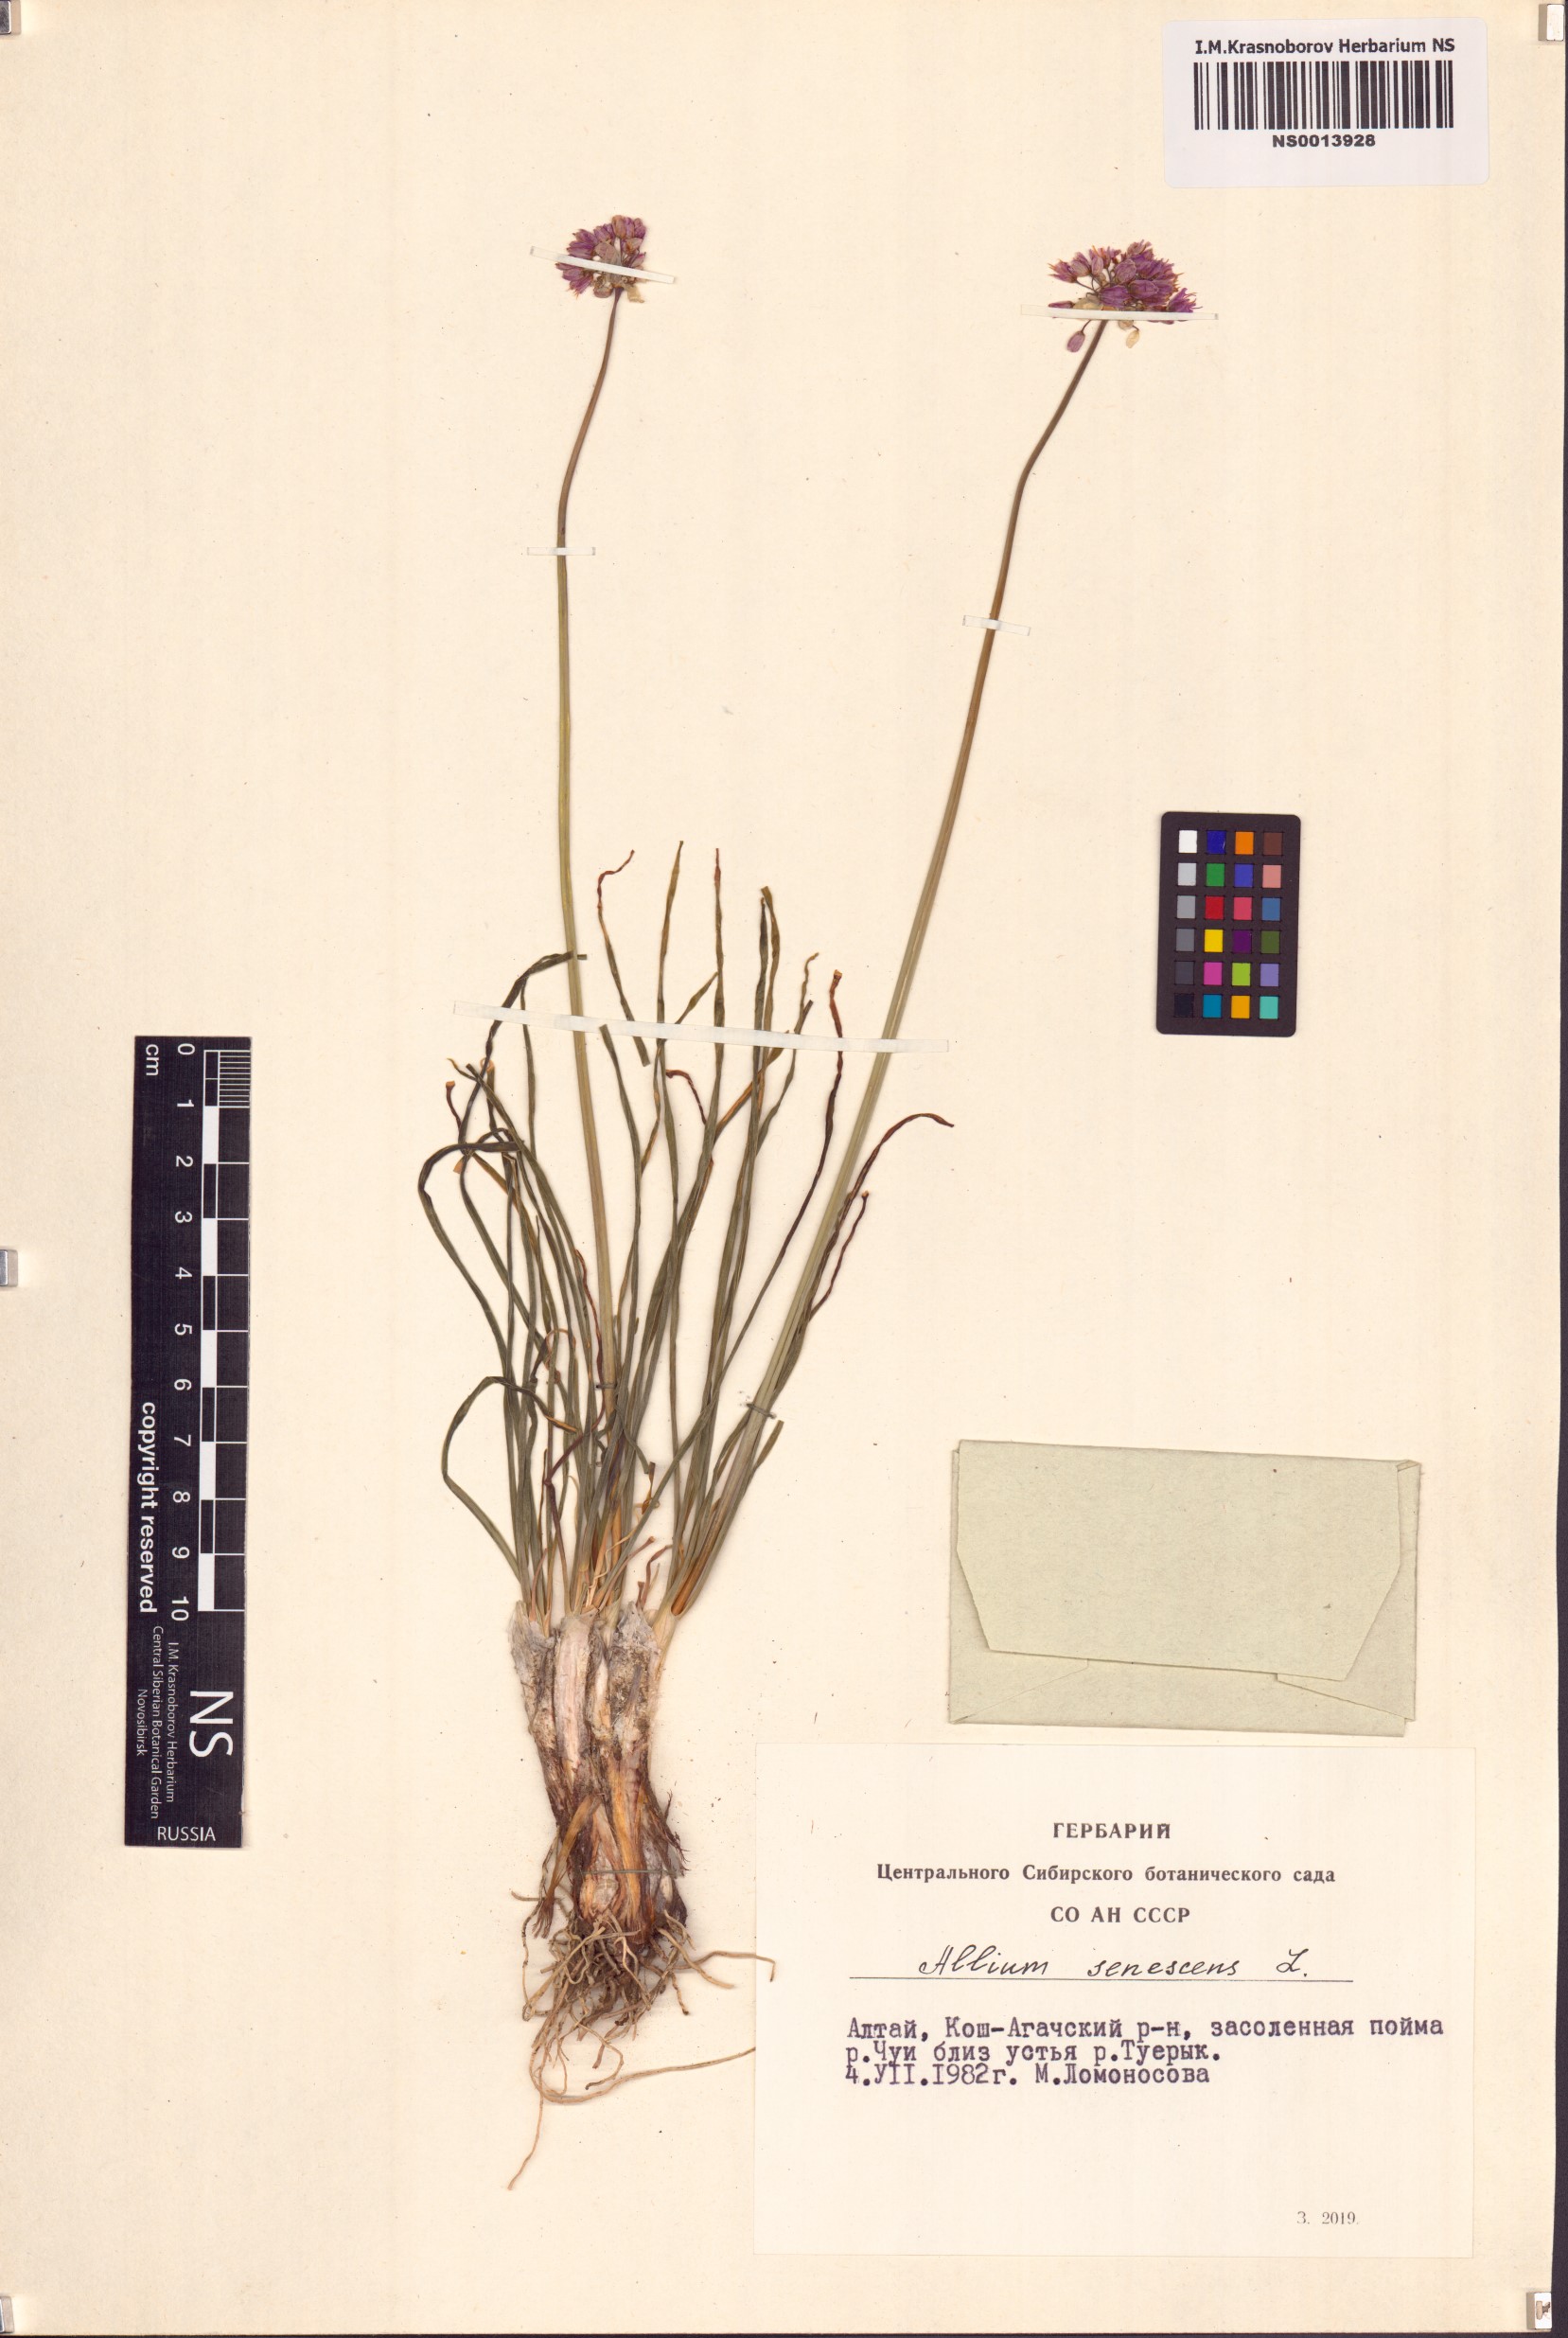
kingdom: Plantae
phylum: Tracheophyta
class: Liliopsida
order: Asparagales
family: Amaryllidaceae
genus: Allium
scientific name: Allium senescens
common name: German garlic
